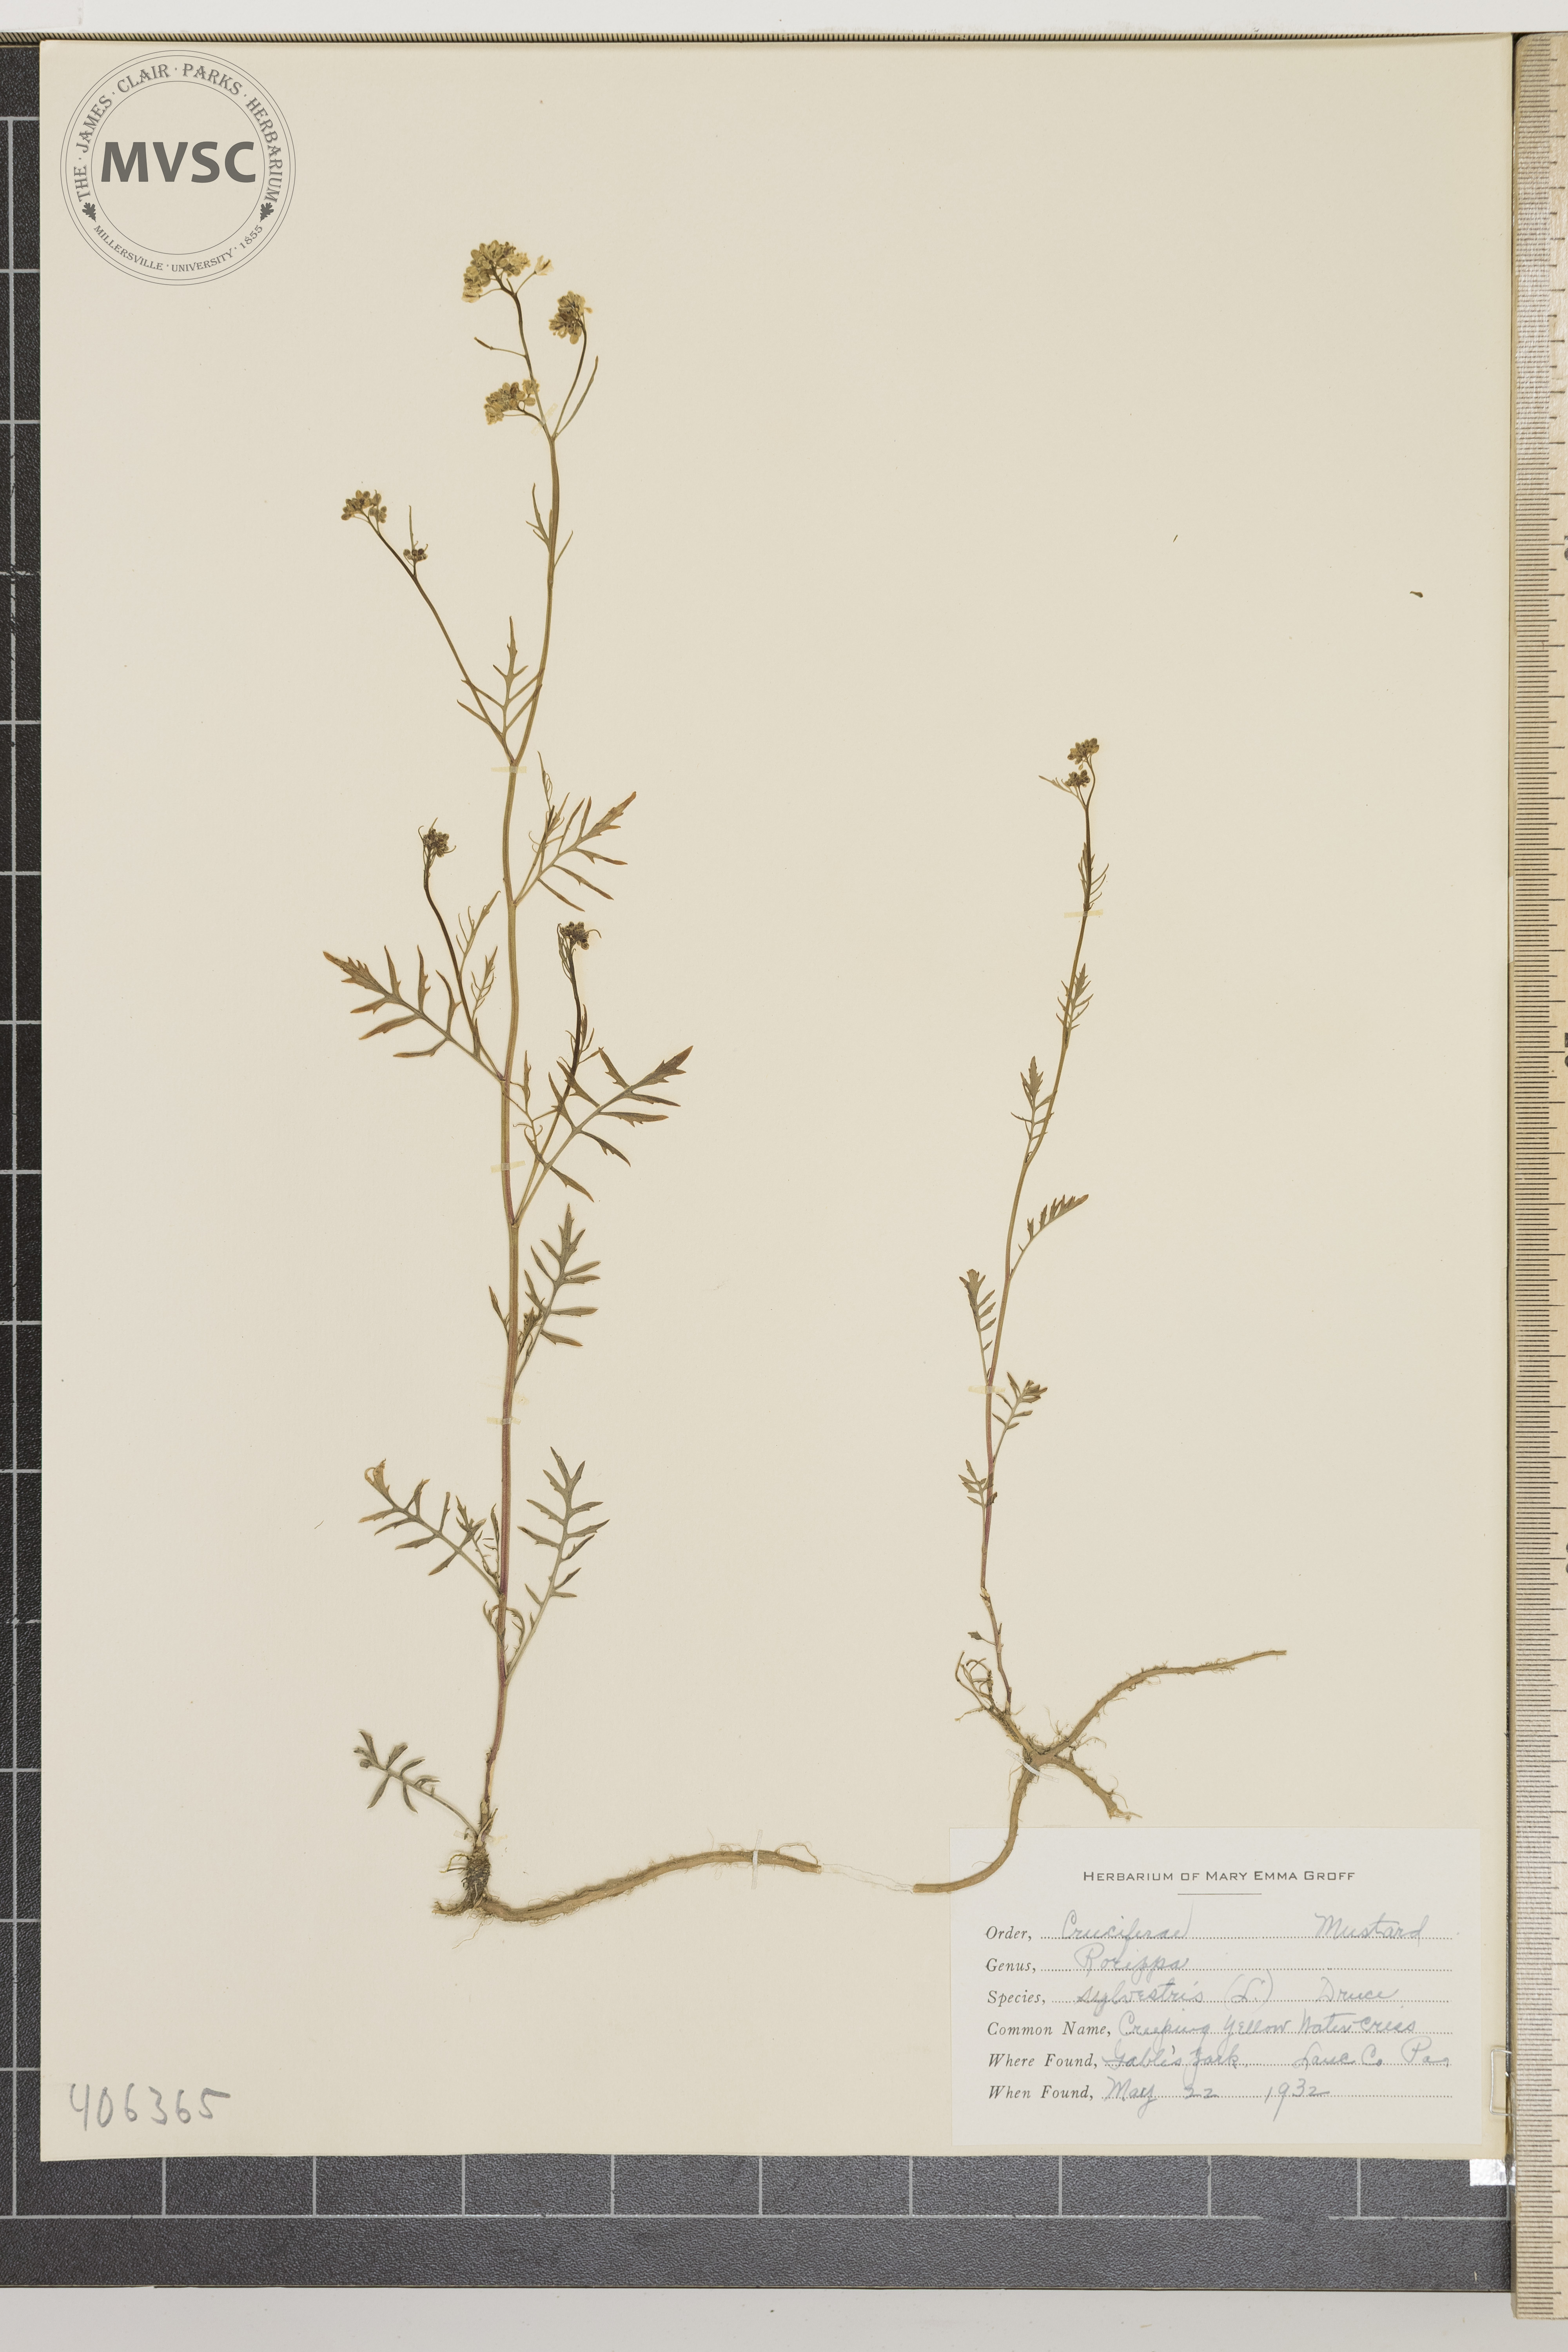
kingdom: Plantae
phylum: Tracheophyta
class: Magnoliopsida
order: Brassicales
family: Brassicaceae
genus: Rorippa
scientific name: Rorippa sylvestris
